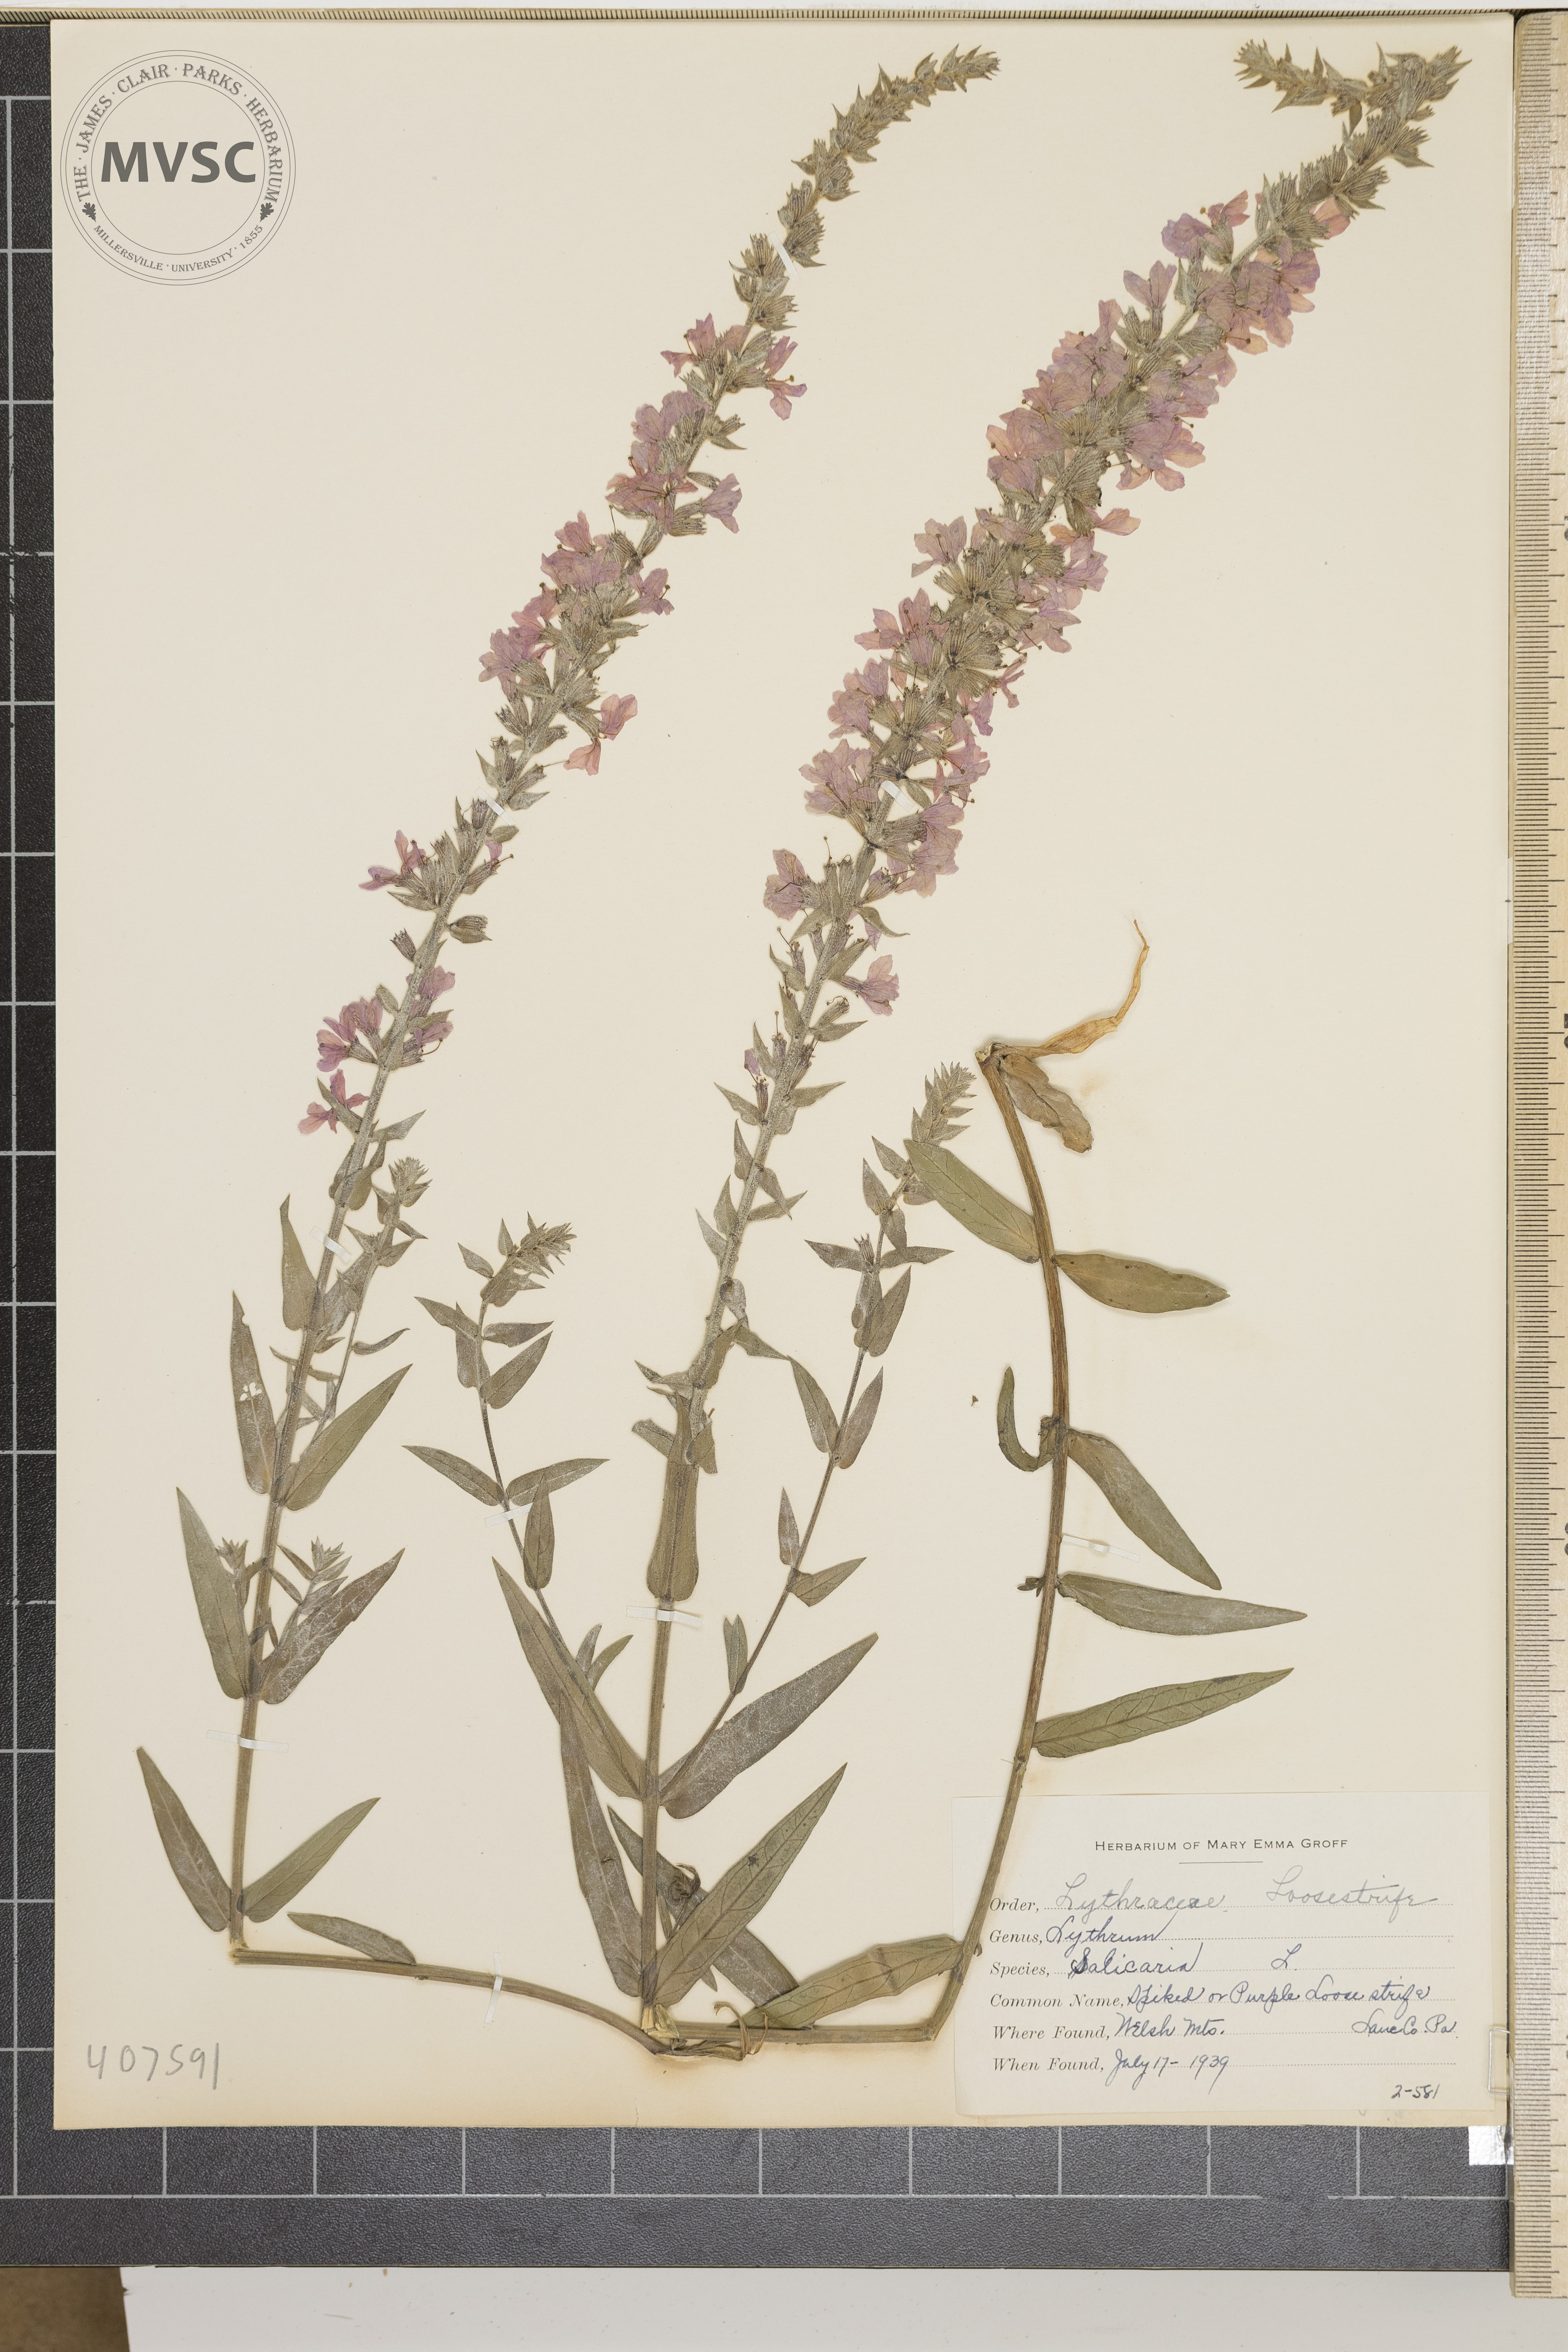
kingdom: Plantae
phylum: Tracheophyta
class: Magnoliopsida
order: Myrtales
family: Lythraceae
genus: Lythrum
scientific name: Lythrum salicaria
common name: purple loosestrife
